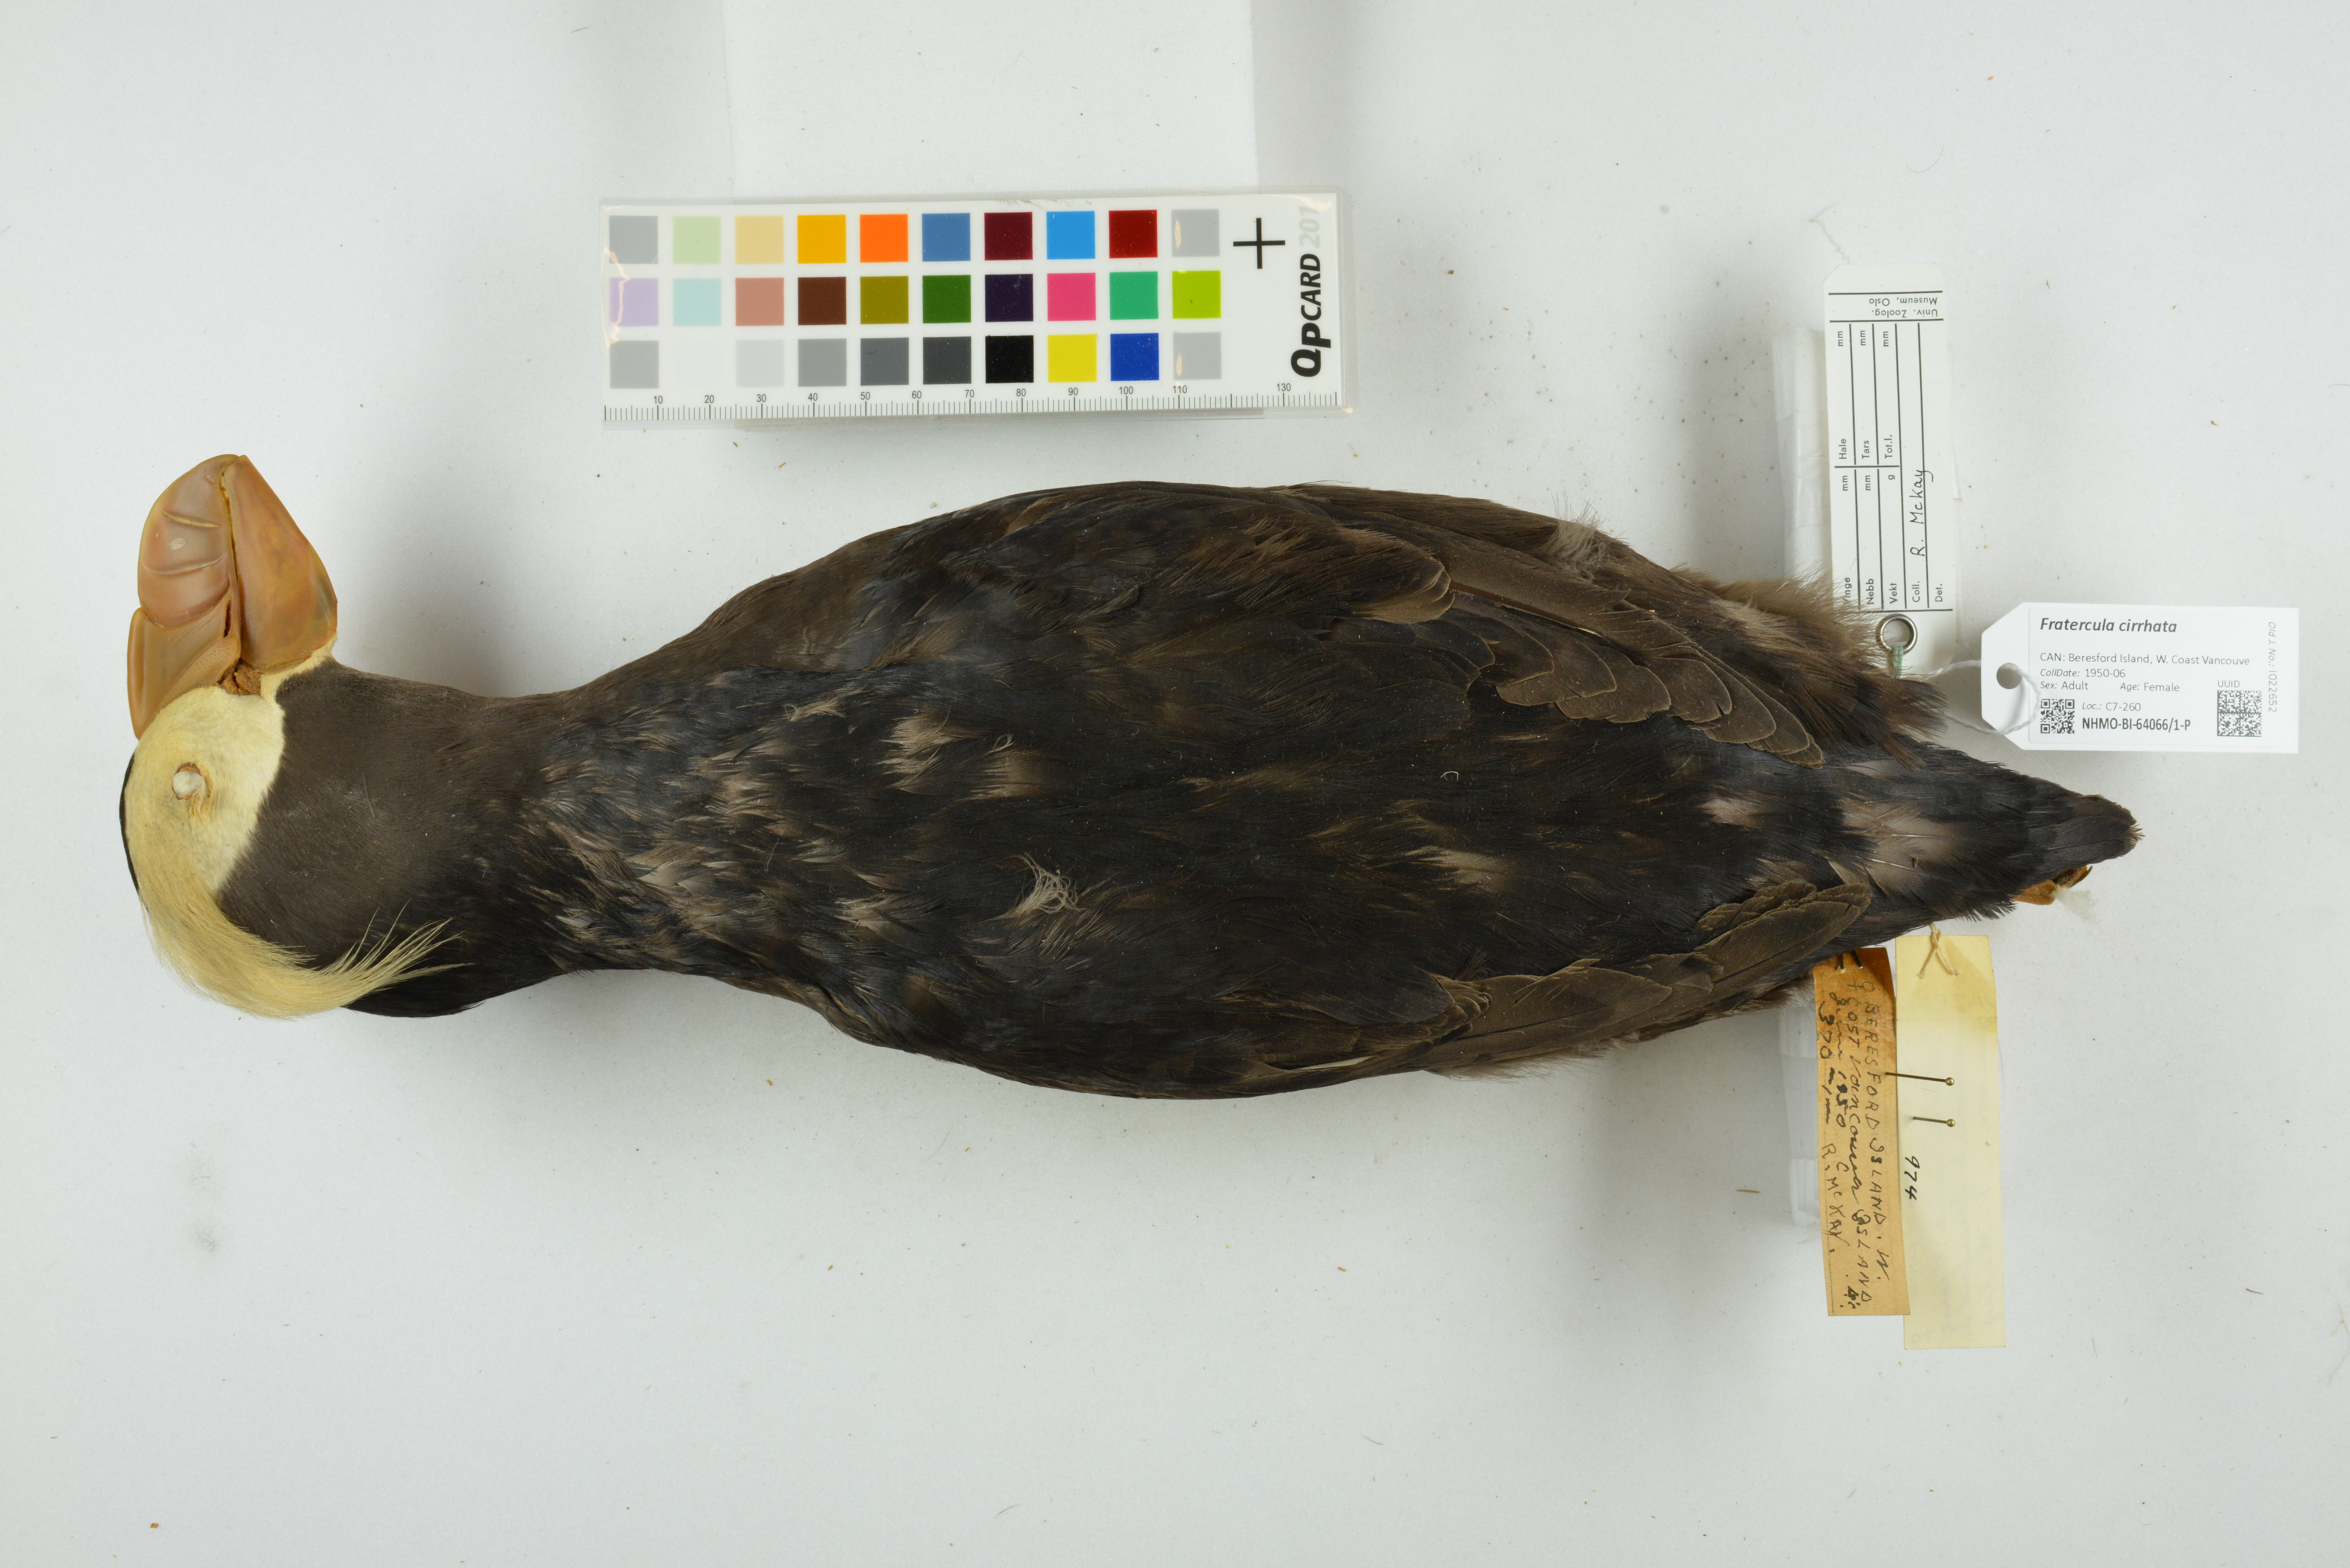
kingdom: Animalia
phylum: Chordata
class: Aves
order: Charadriiformes
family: Alcidae
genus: Fratercula
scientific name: Fratercula cirrhata
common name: Tufted puffin
